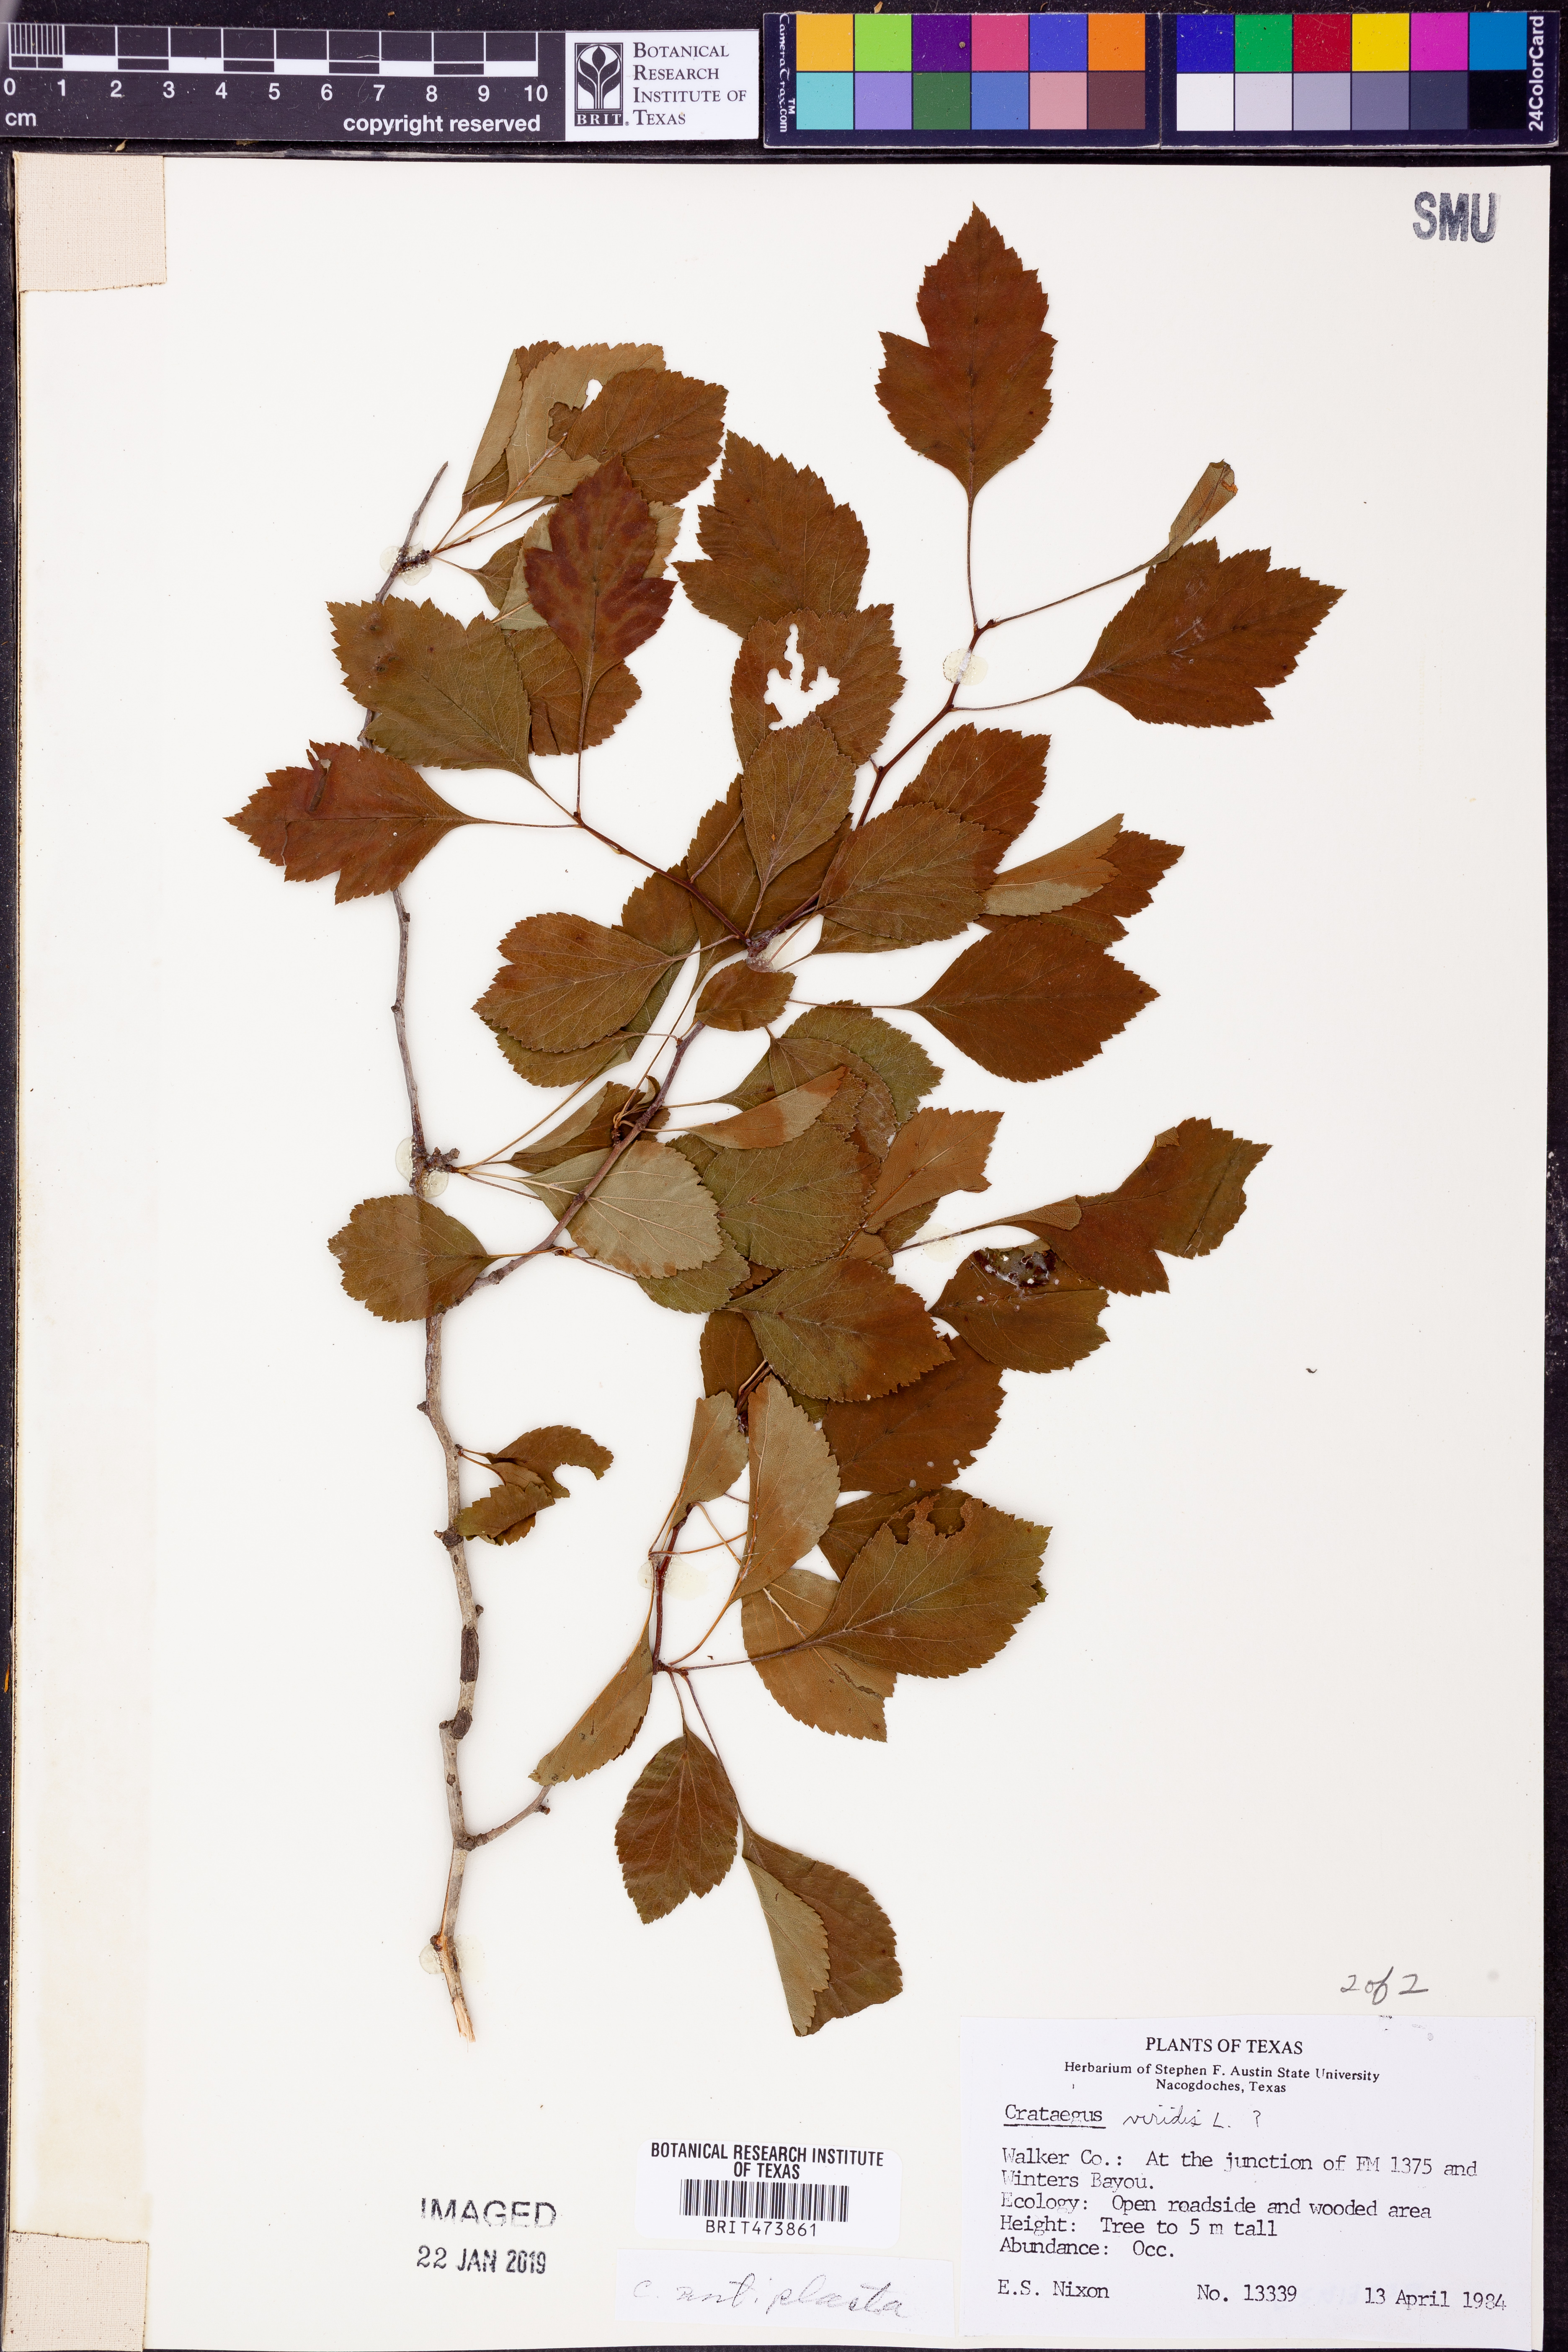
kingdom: Plantae
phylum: Tracheophyta
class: Magnoliopsida
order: Rosales
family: Rosaceae
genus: Crataegus
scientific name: Crataegus viridis
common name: Southernthorn
